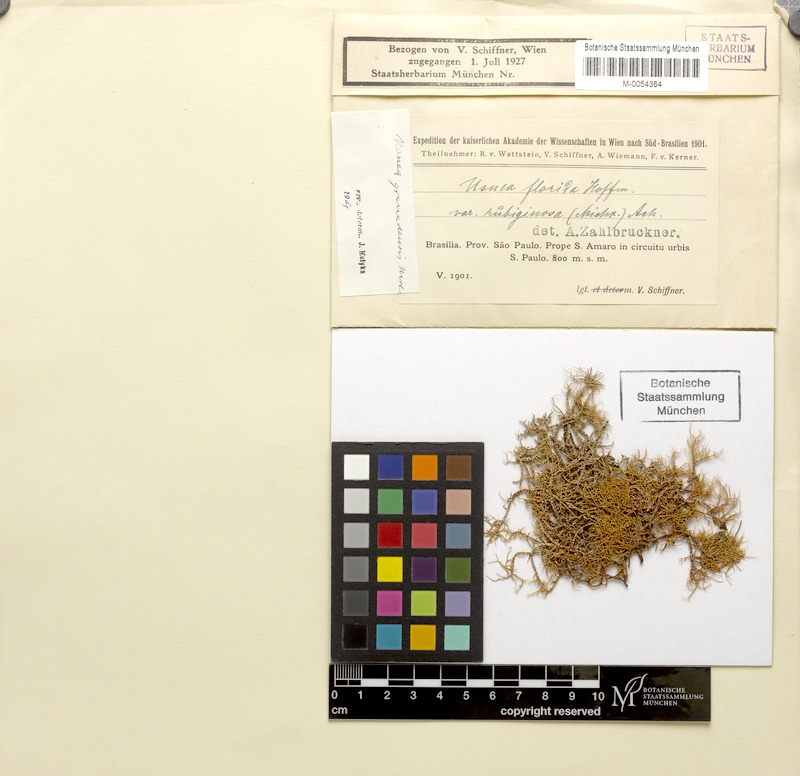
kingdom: Fungi
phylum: Ascomycota
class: Lecanoromycetes
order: Lecanorales
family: Parmeliaceae
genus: Usnea
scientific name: Usnea granadensis
